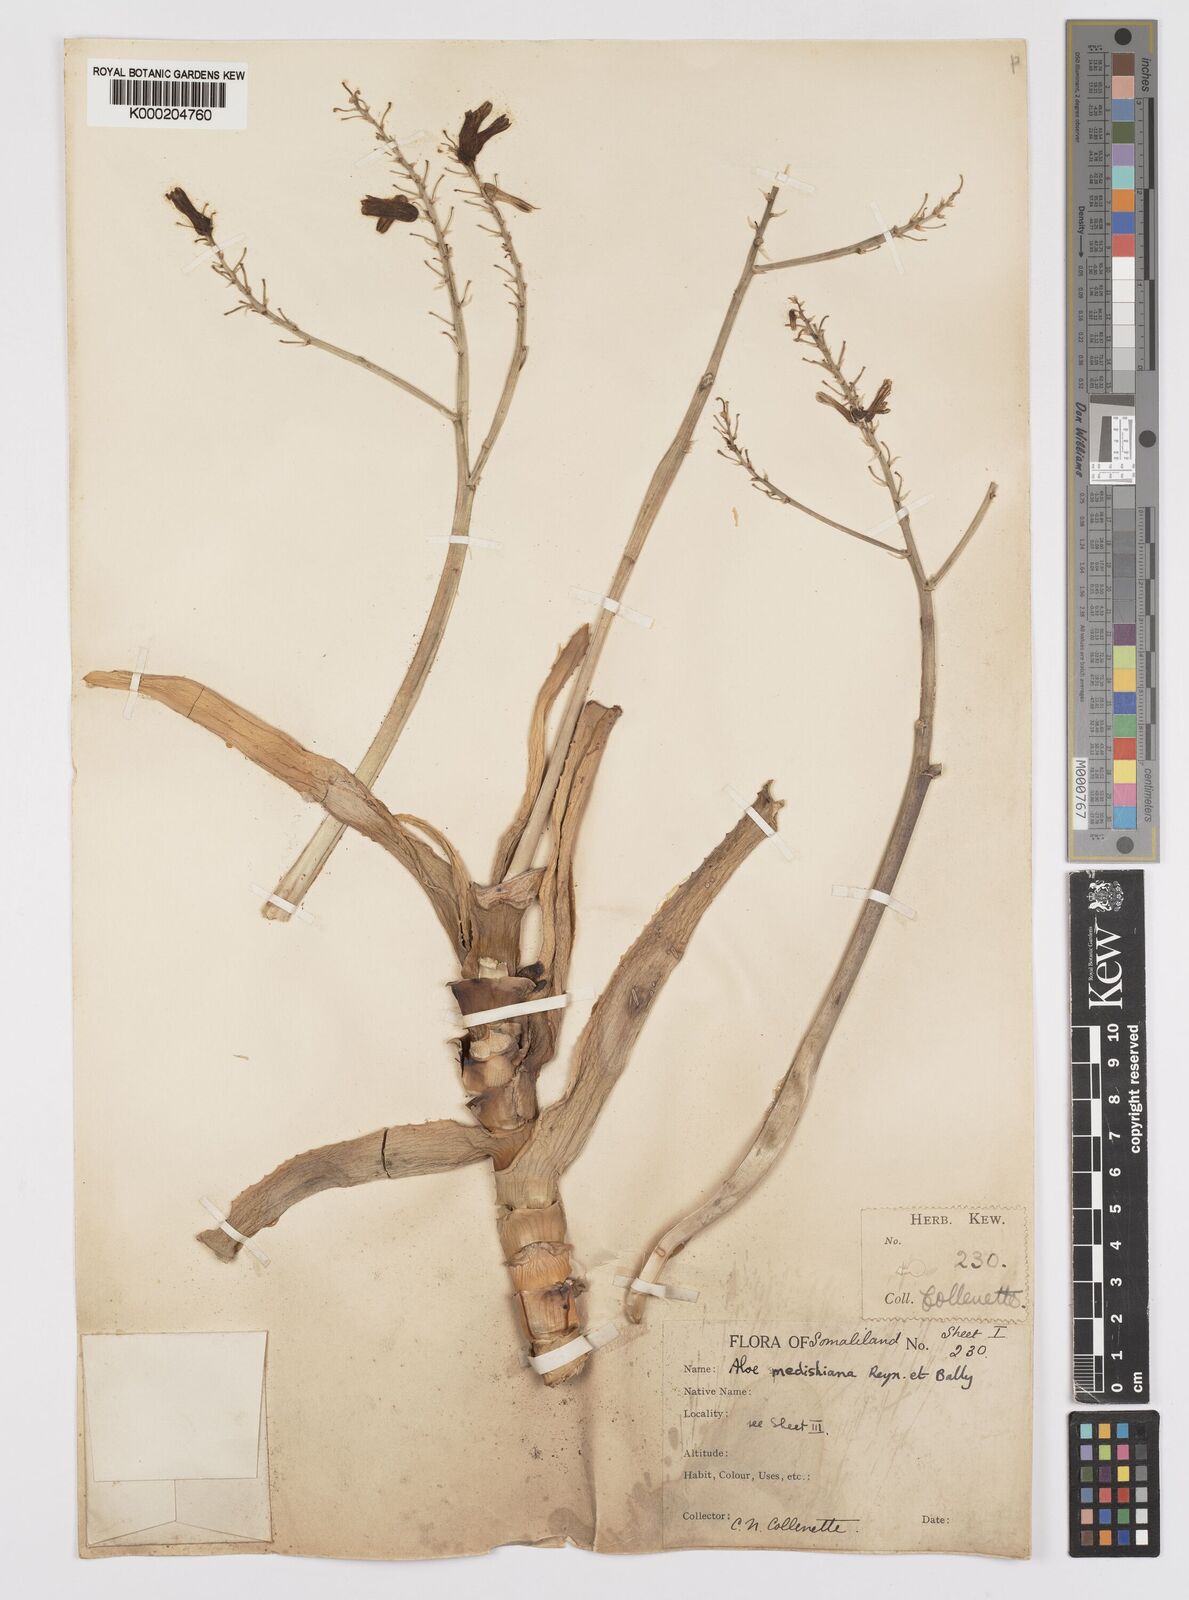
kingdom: Plantae
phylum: Tracheophyta
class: Liliopsida
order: Asparagales
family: Asphodelaceae
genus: Aloe
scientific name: Aloe medishiana
